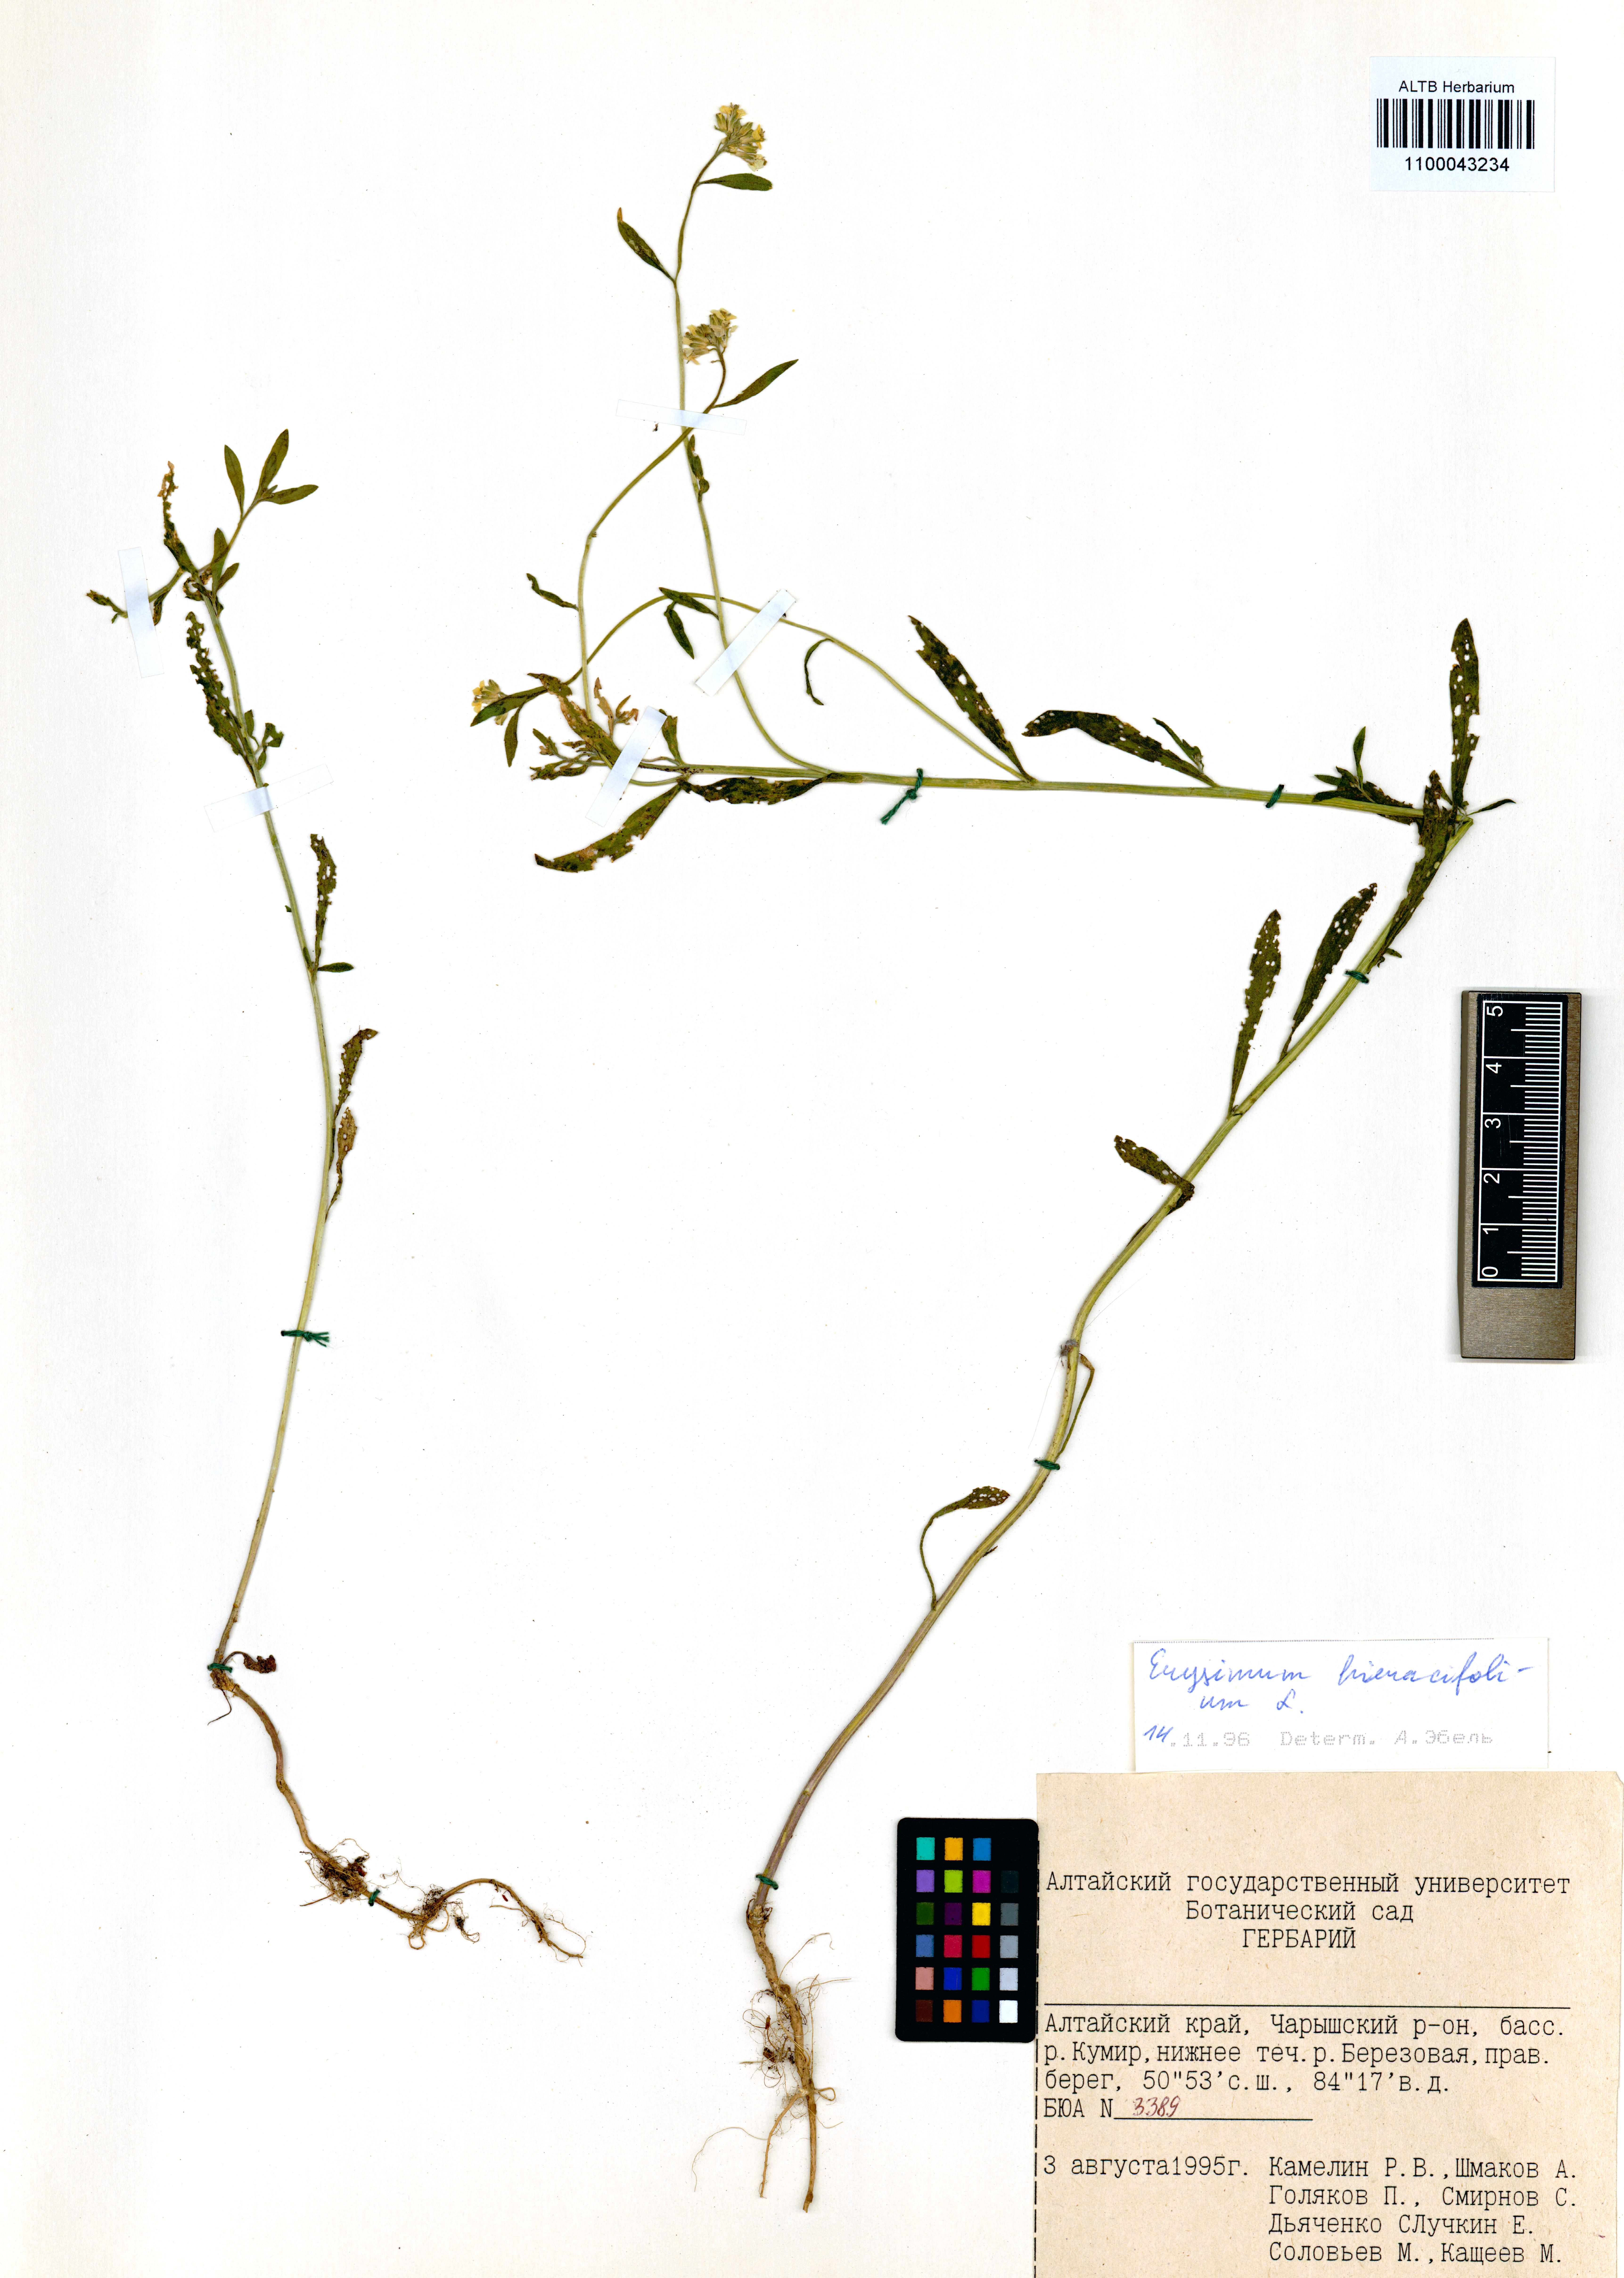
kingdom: Plantae
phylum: Tracheophyta
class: Magnoliopsida
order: Brassicales
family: Brassicaceae
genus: Erysimum
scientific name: Erysimum hieraciifolium
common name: European wallflower
